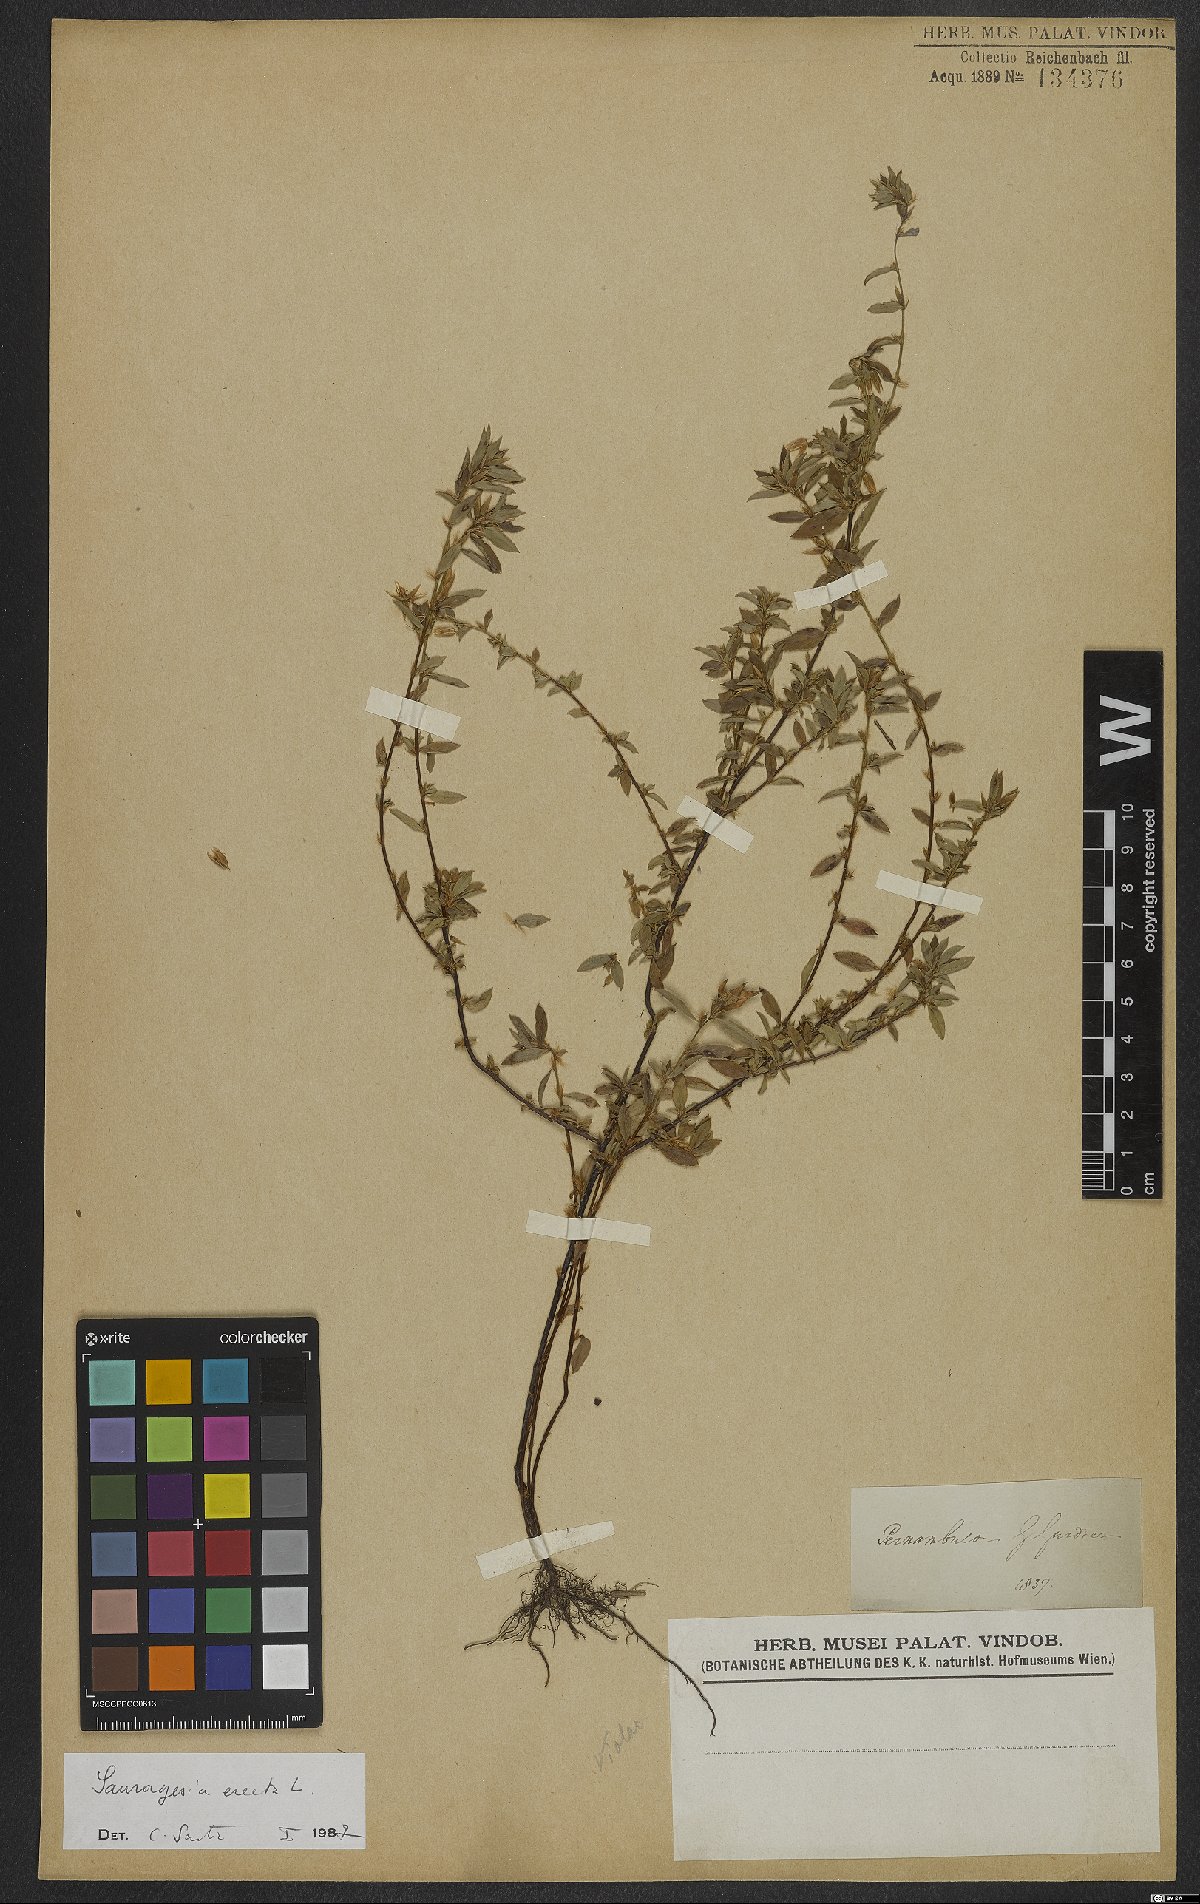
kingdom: Plantae
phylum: Tracheophyta
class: Magnoliopsida
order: Malpighiales
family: Ochnaceae
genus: Sauvagesia
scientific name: Sauvagesia erecta
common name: Creole tea
